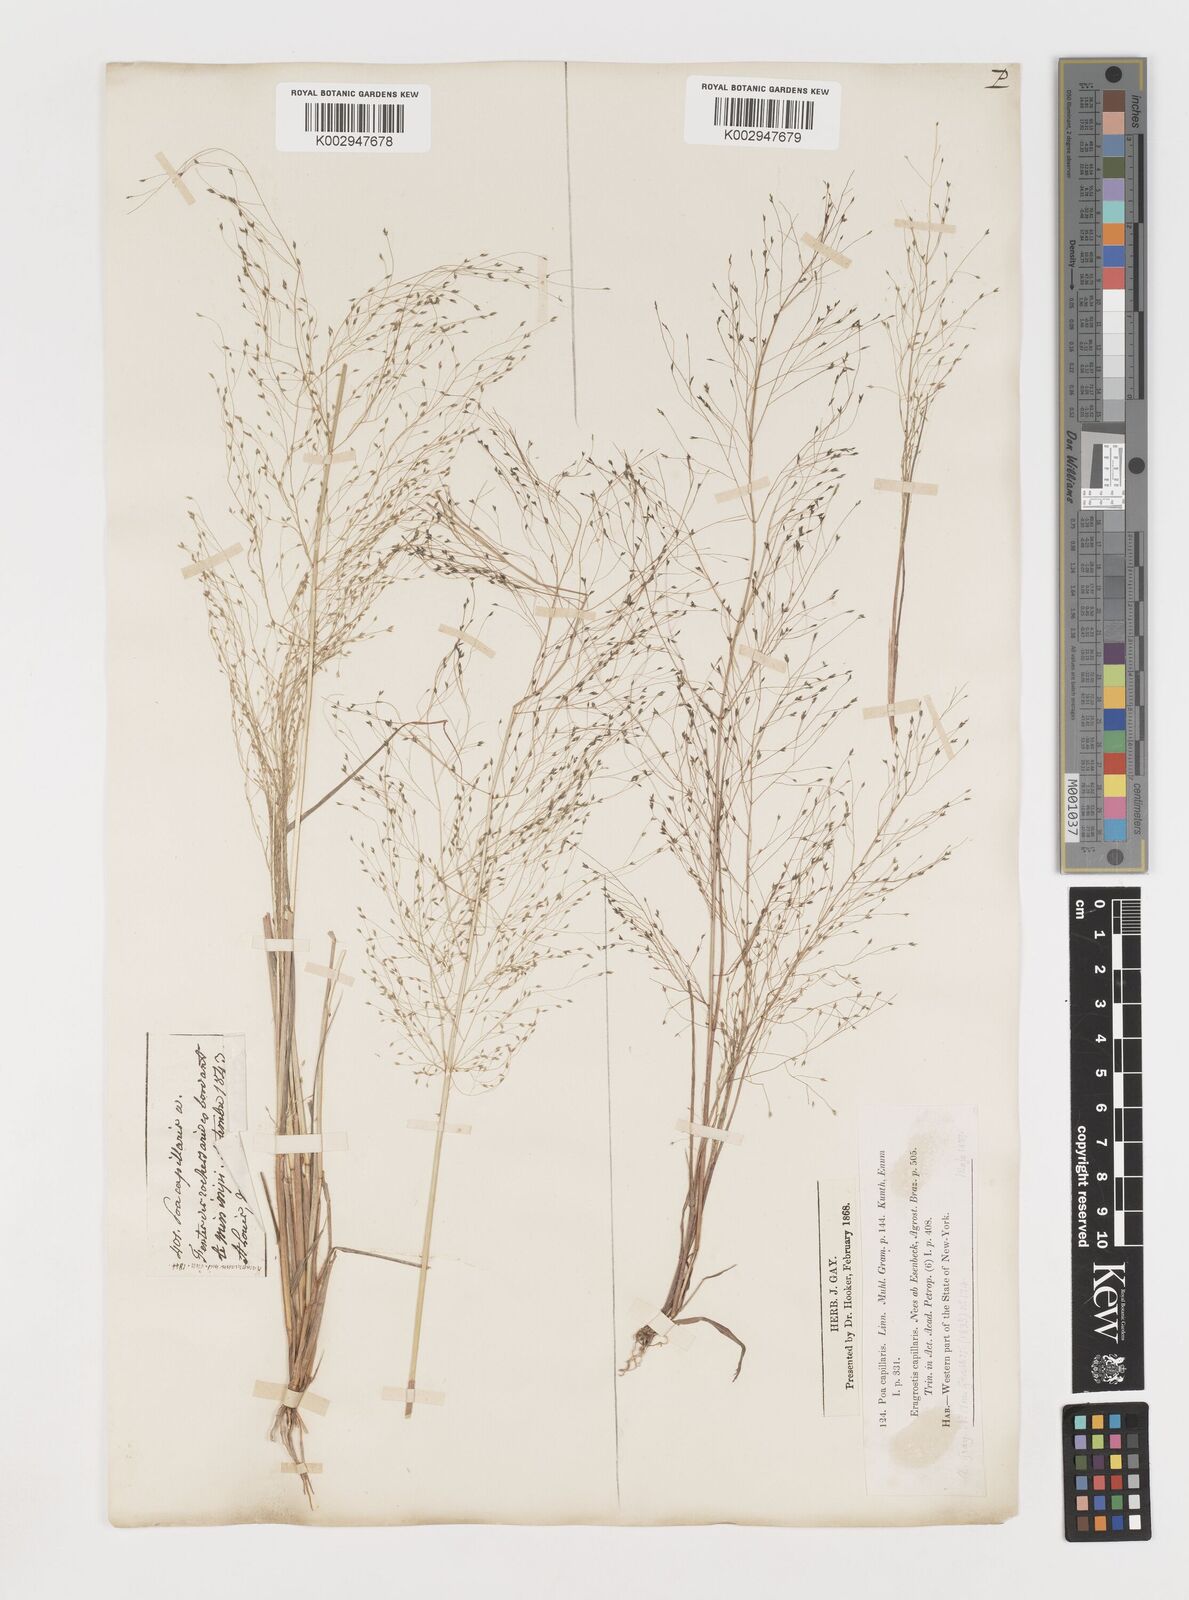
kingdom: Plantae
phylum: Tracheophyta
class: Liliopsida
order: Poales
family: Poaceae
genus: Eragrostis
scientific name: Eragrostis capillaris
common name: Hair-like lovegrass
